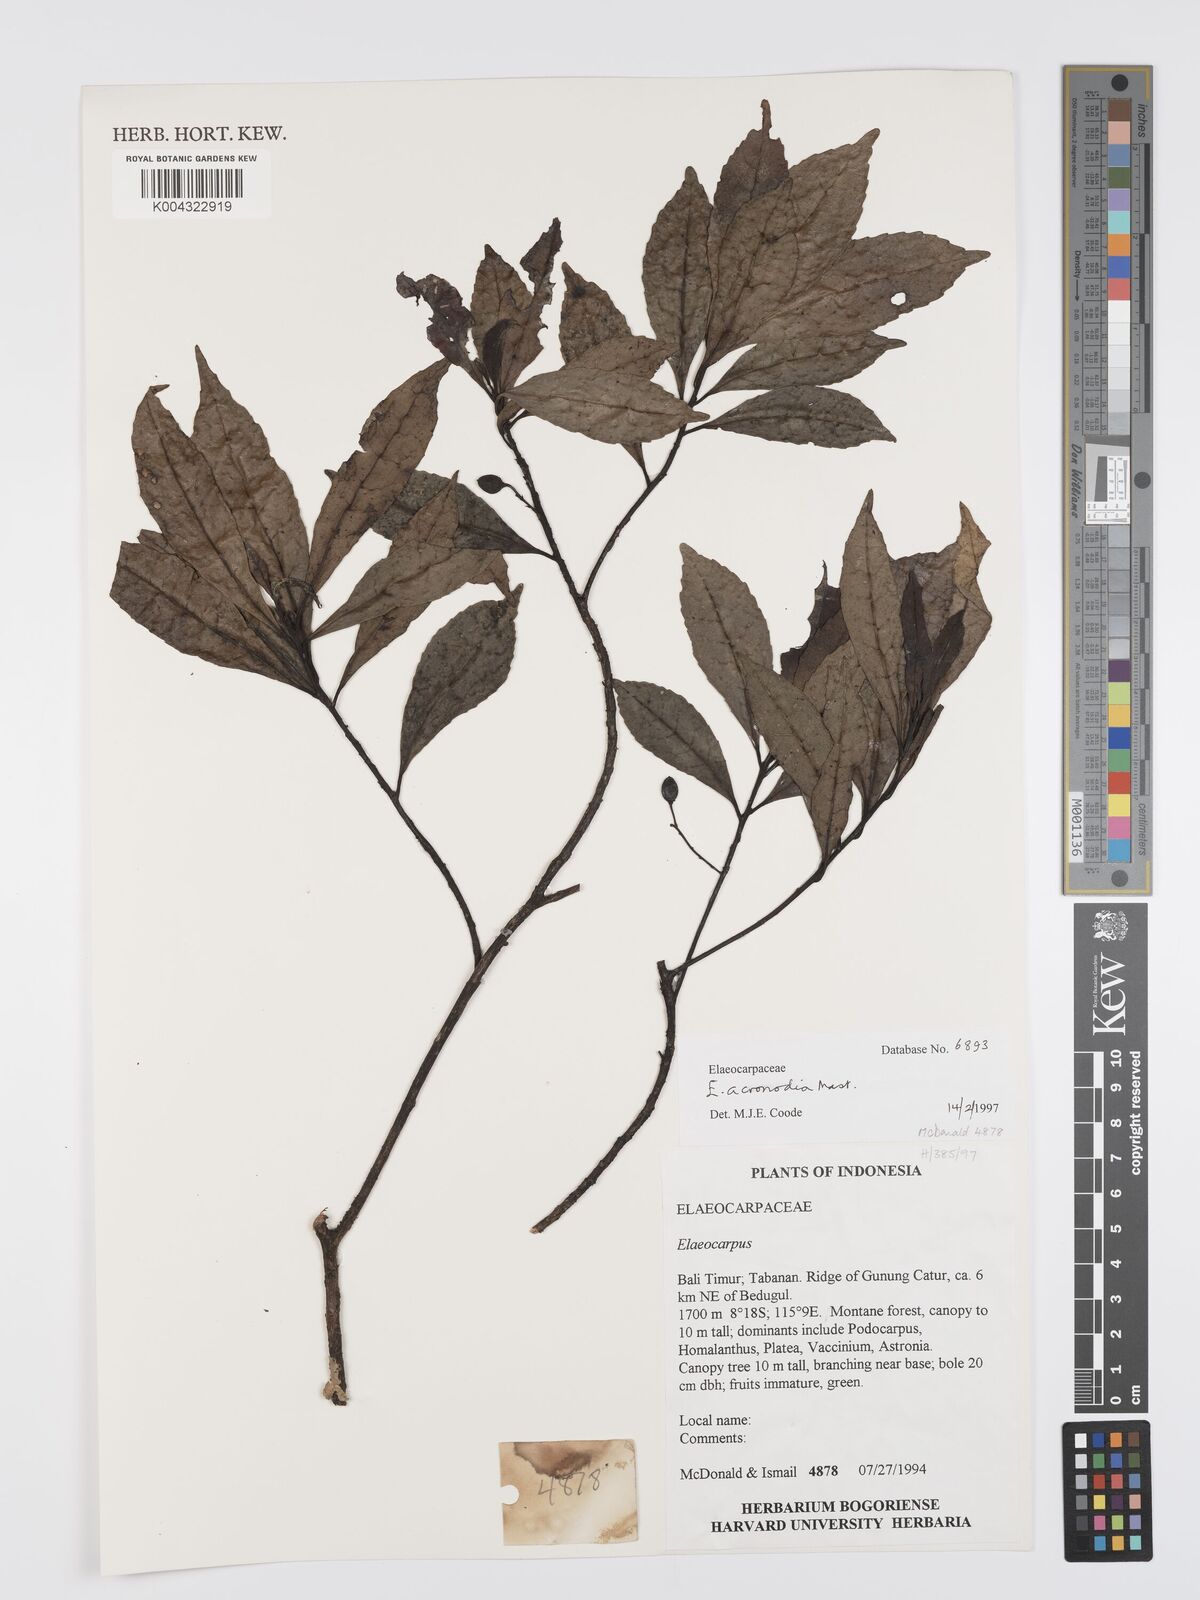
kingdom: Plantae
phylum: Tracheophyta
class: Magnoliopsida
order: Oxalidales
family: Elaeocarpaceae
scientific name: Elaeocarpaceae
